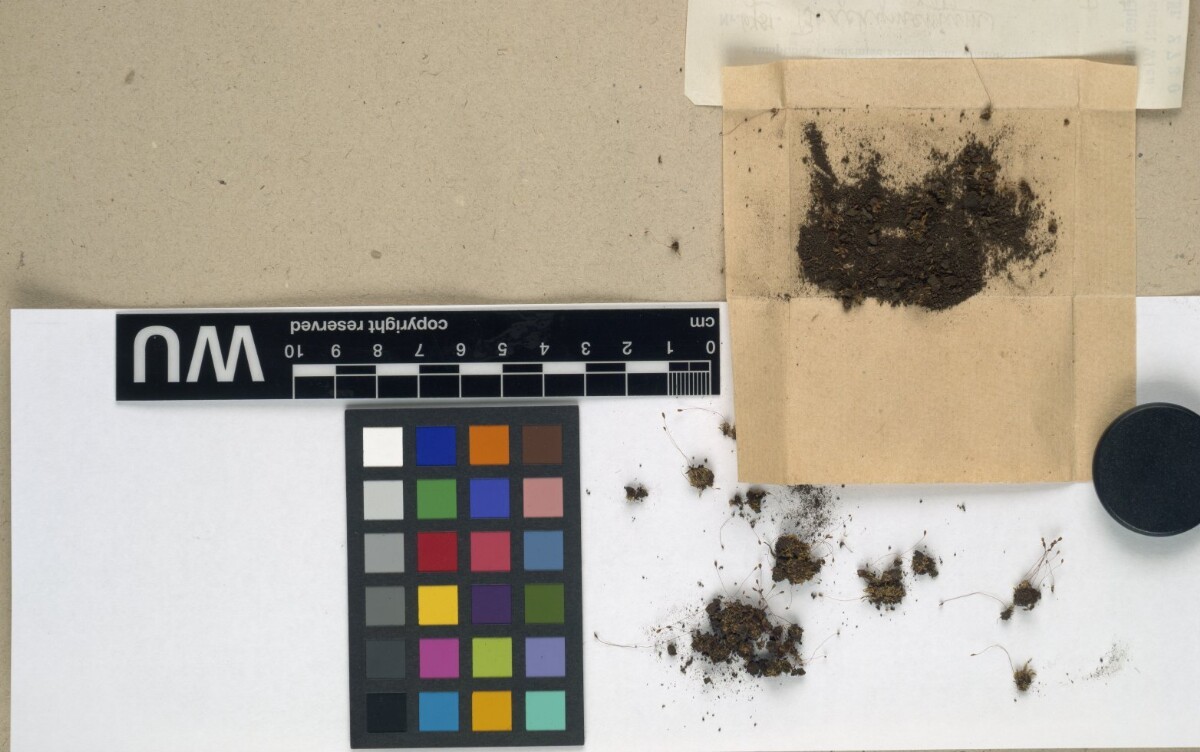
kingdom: Plantae
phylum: Bryophyta
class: Bryopsida
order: Bryales
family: Bryaceae
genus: Brachymenium
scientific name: Brachymenium muricola
